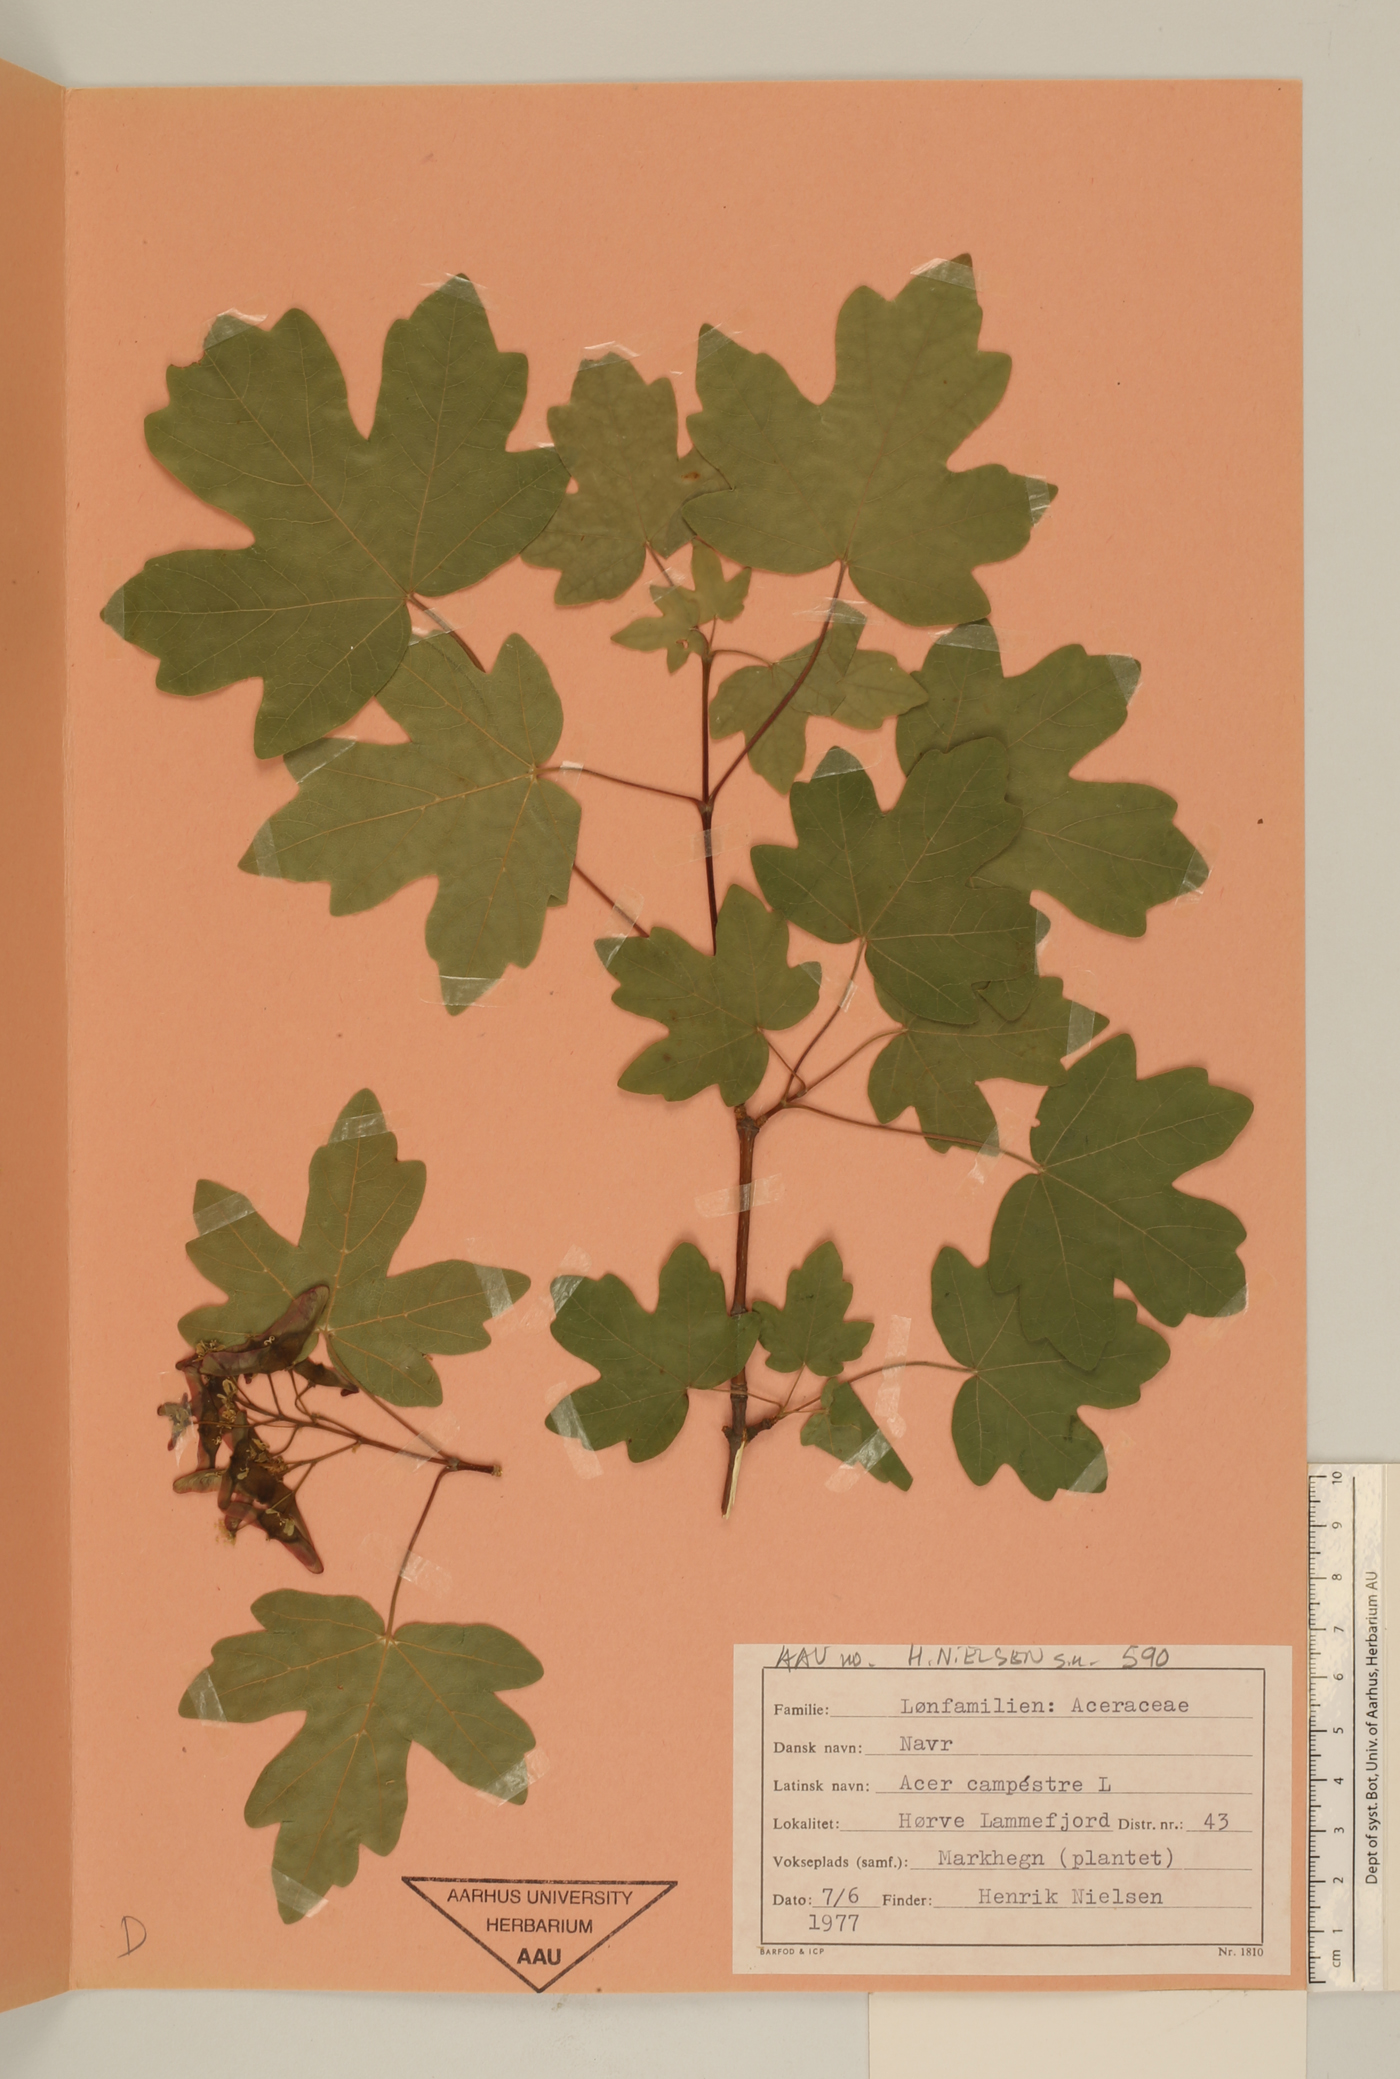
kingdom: Plantae
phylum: Tracheophyta
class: Magnoliopsida
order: Sapindales
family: Sapindaceae
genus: Acer
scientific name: Acer campestre
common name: Field maple
